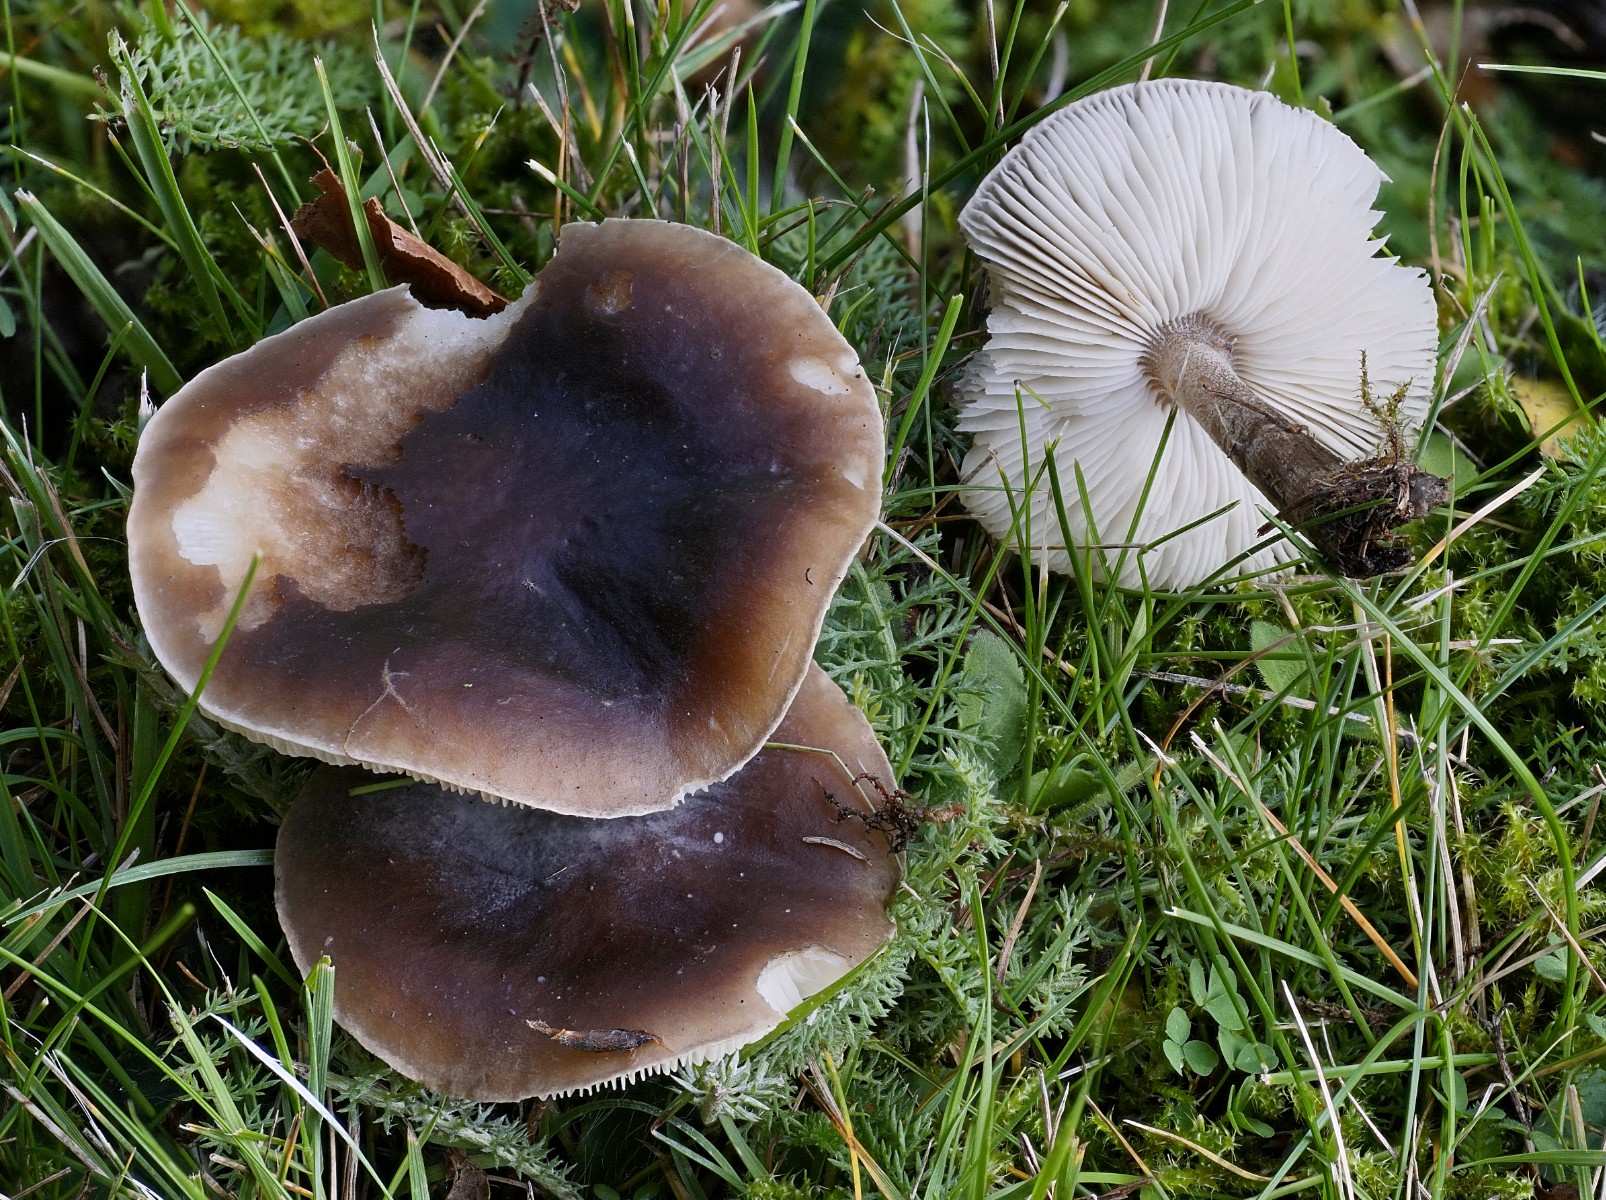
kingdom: Fungi
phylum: Basidiomycota
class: Agaricomycetes
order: Agaricales
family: Tricholomataceae
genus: Melanoleuca
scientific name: Melanoleuca
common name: munkehat
